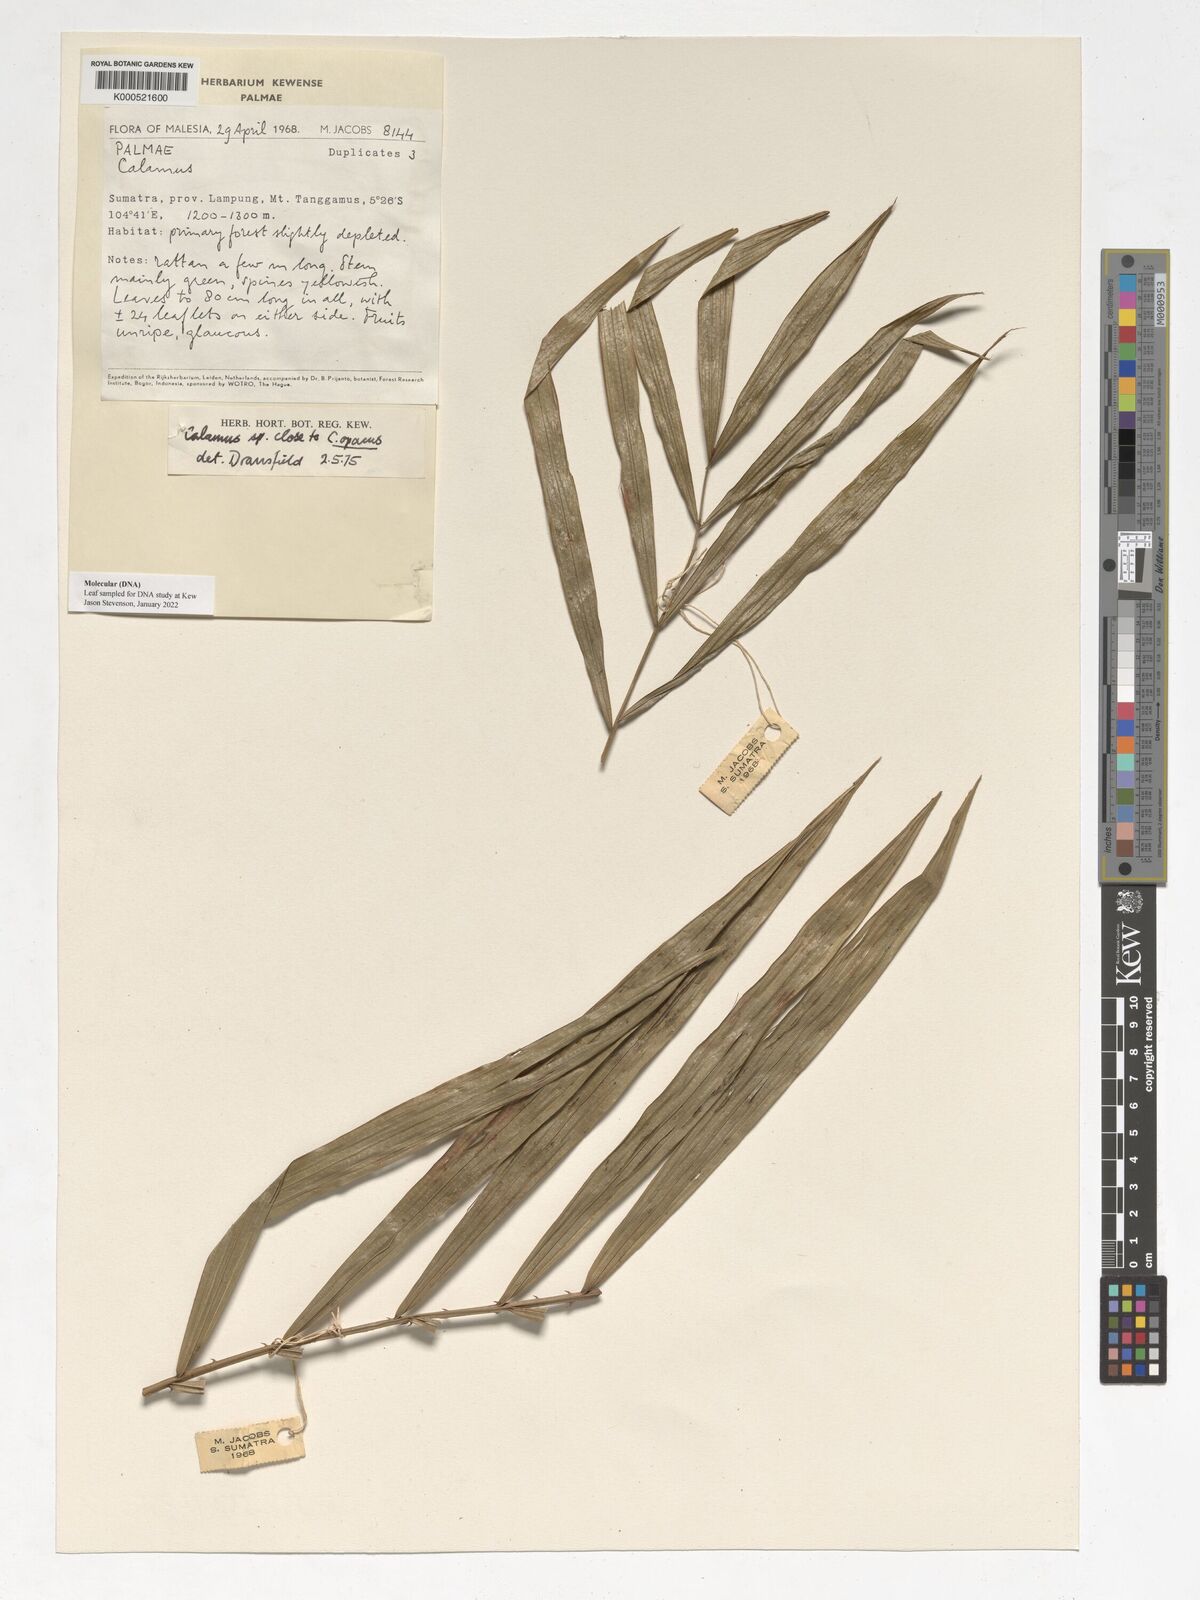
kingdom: Plantae
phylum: Tracheophyta
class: Liliopsida
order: Arecales
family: Arecaceae
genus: Calamus
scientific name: Calamus heteroideus
